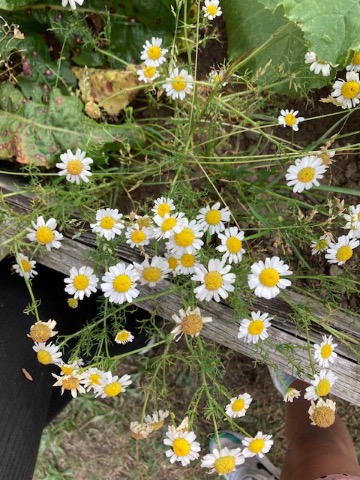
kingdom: Plantae
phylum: Tracheophyta
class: Magnoliopsida
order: Asterales
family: Asteraceae
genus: Tripleurospermum
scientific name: Tripleurospermum inodorum
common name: Lugtløs kamille
